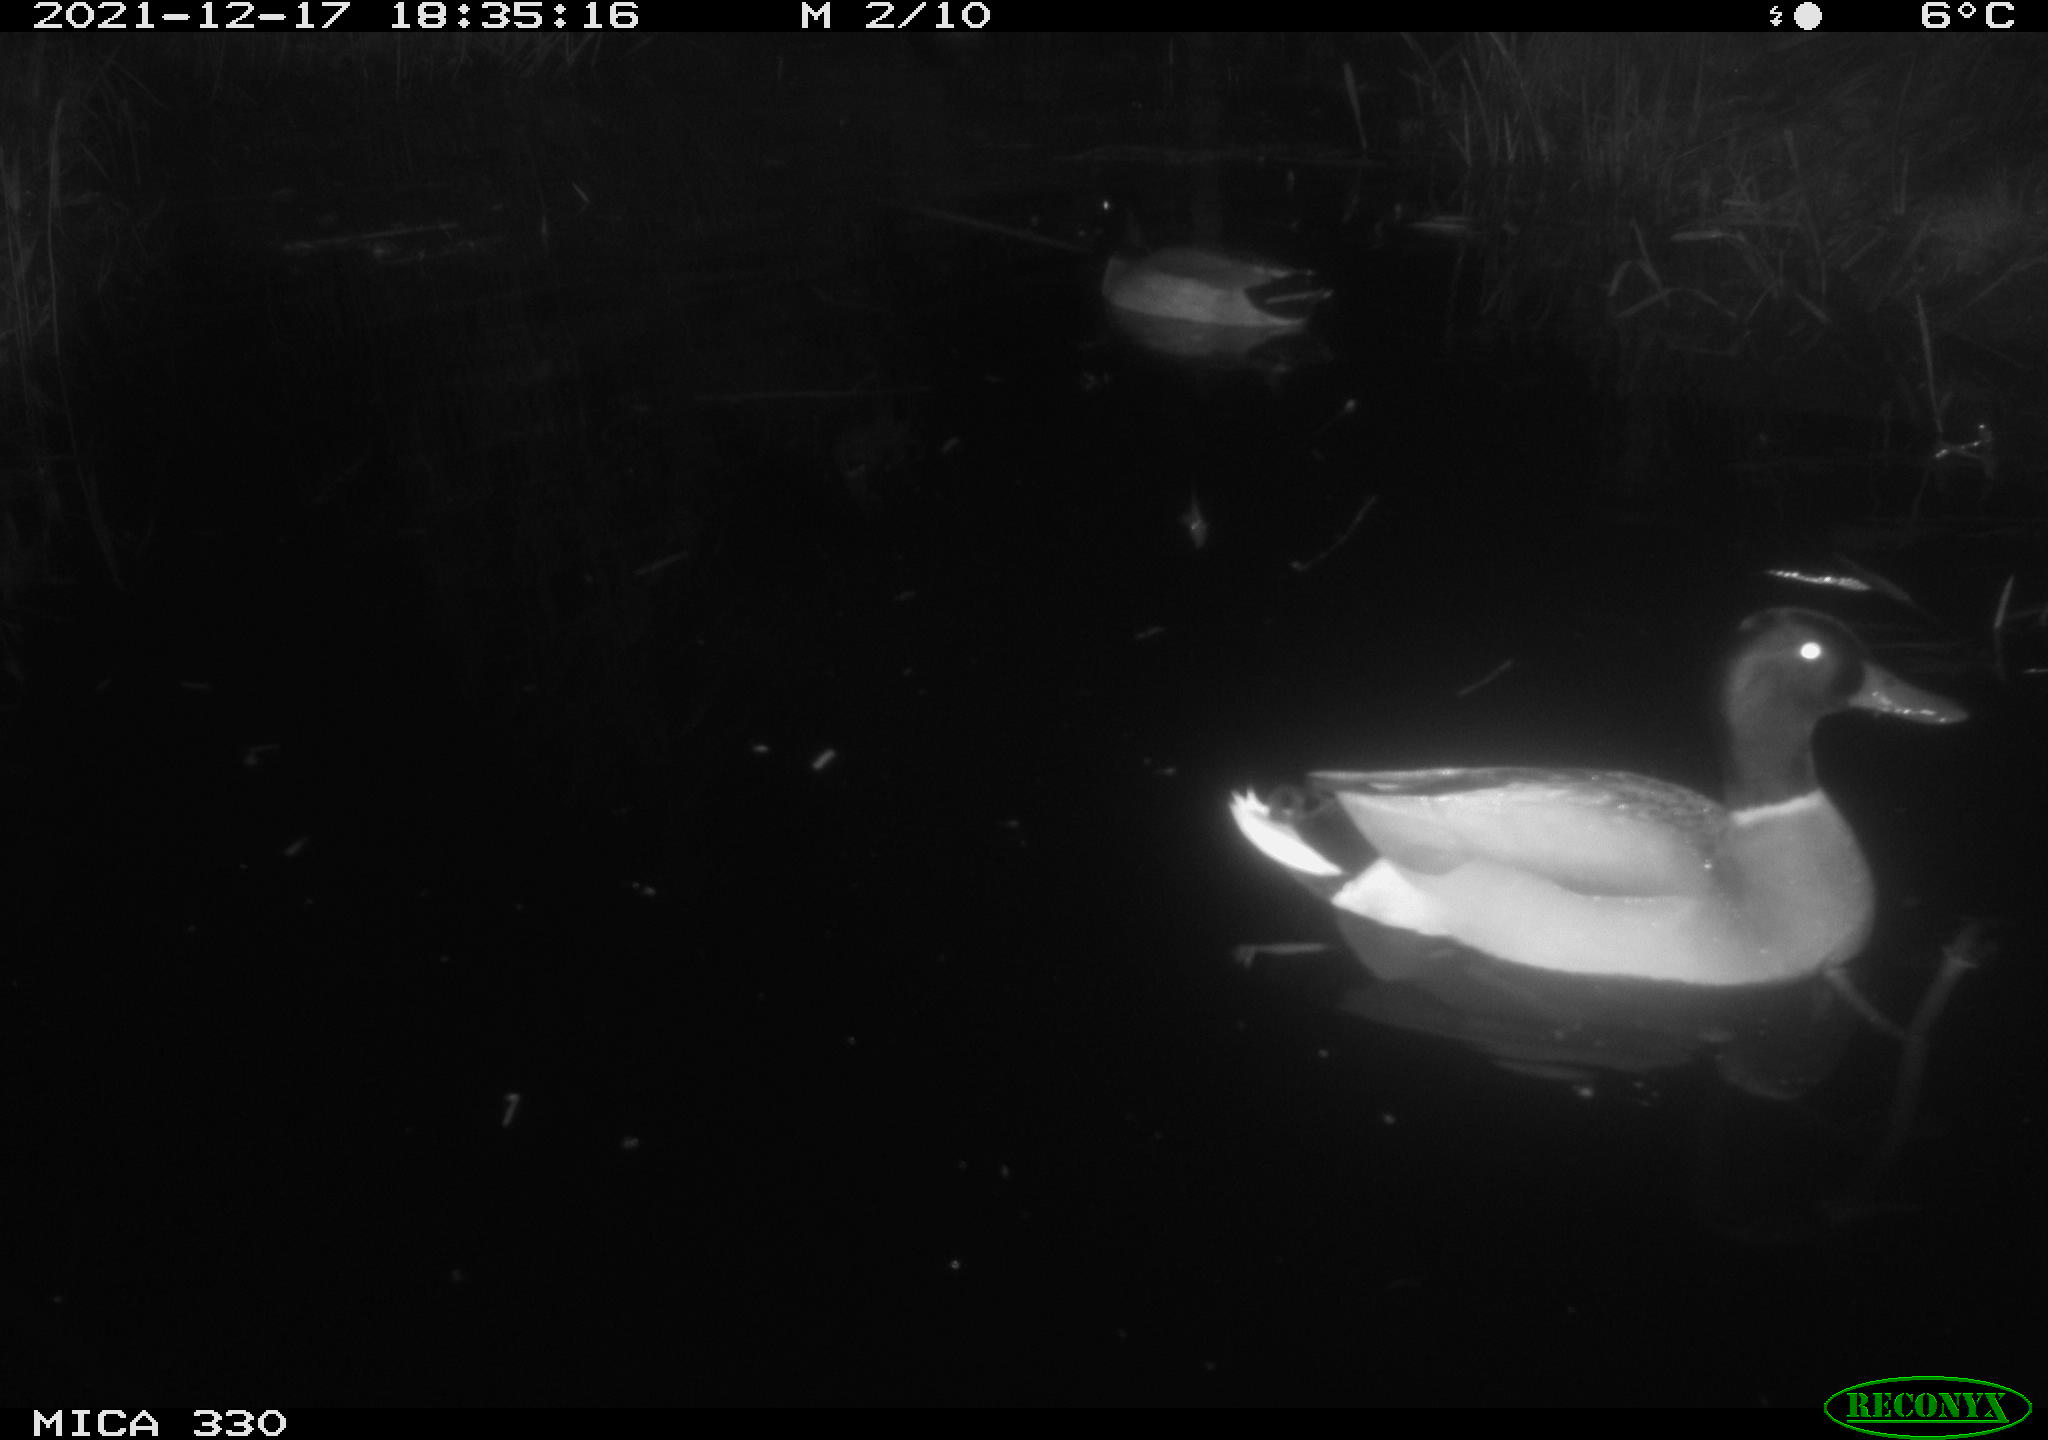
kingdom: Animalia
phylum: Chordata
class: Aves
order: Anseriformes
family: Anatidae
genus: Anas
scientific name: Anas platyrhynchos
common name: Mallard
